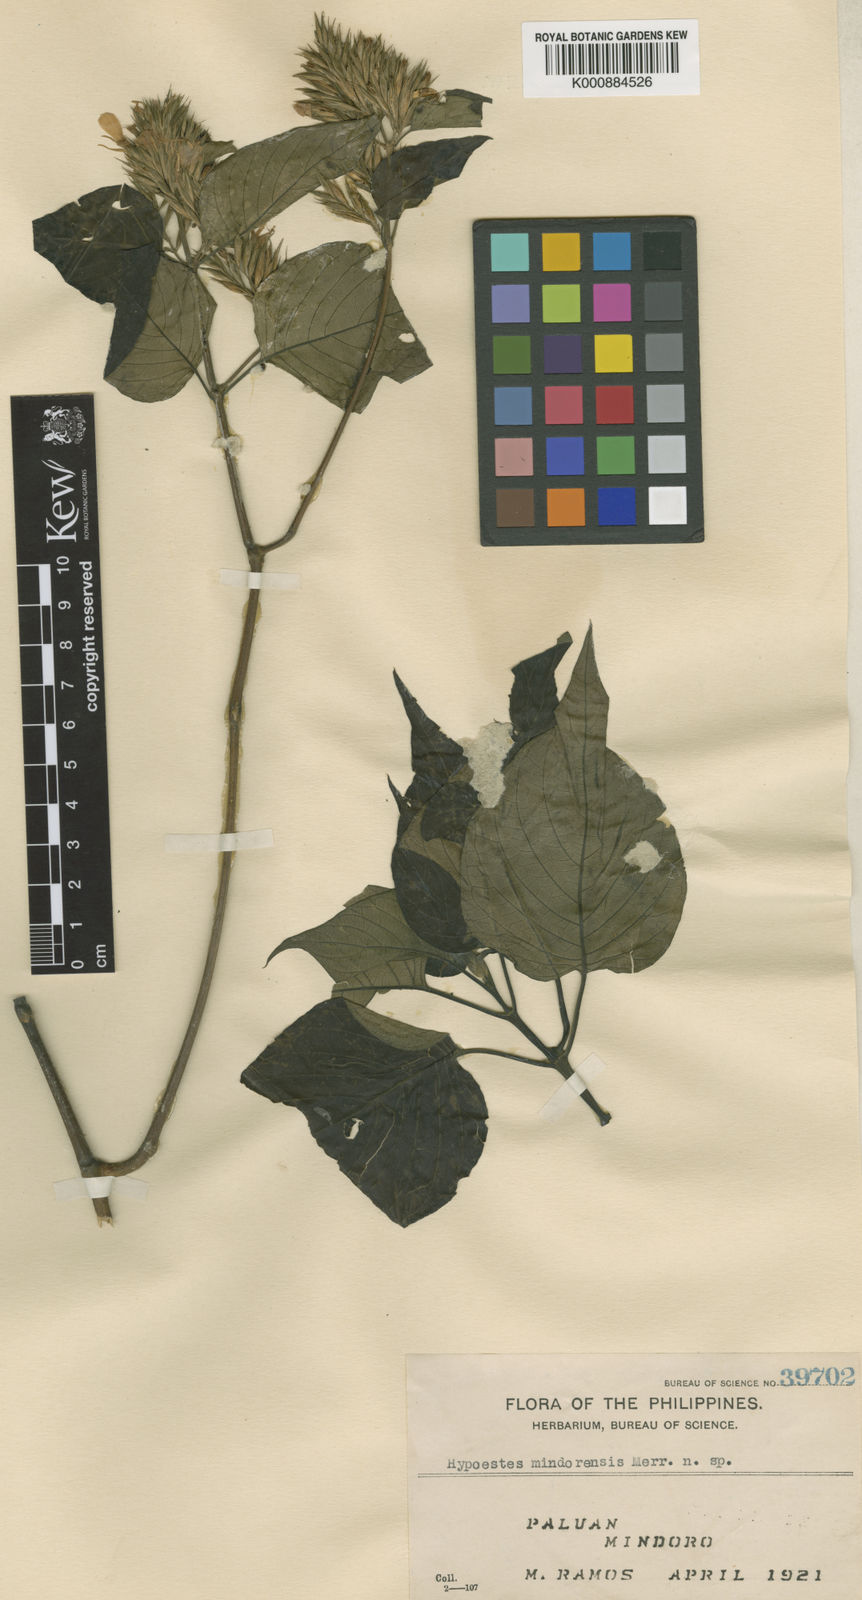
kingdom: Plantae
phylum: Tracheophyta
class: Magnoliopsida
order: Lamiales
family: Acanthaceae
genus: Hypoestes
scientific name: Hypoestes mindorensis
